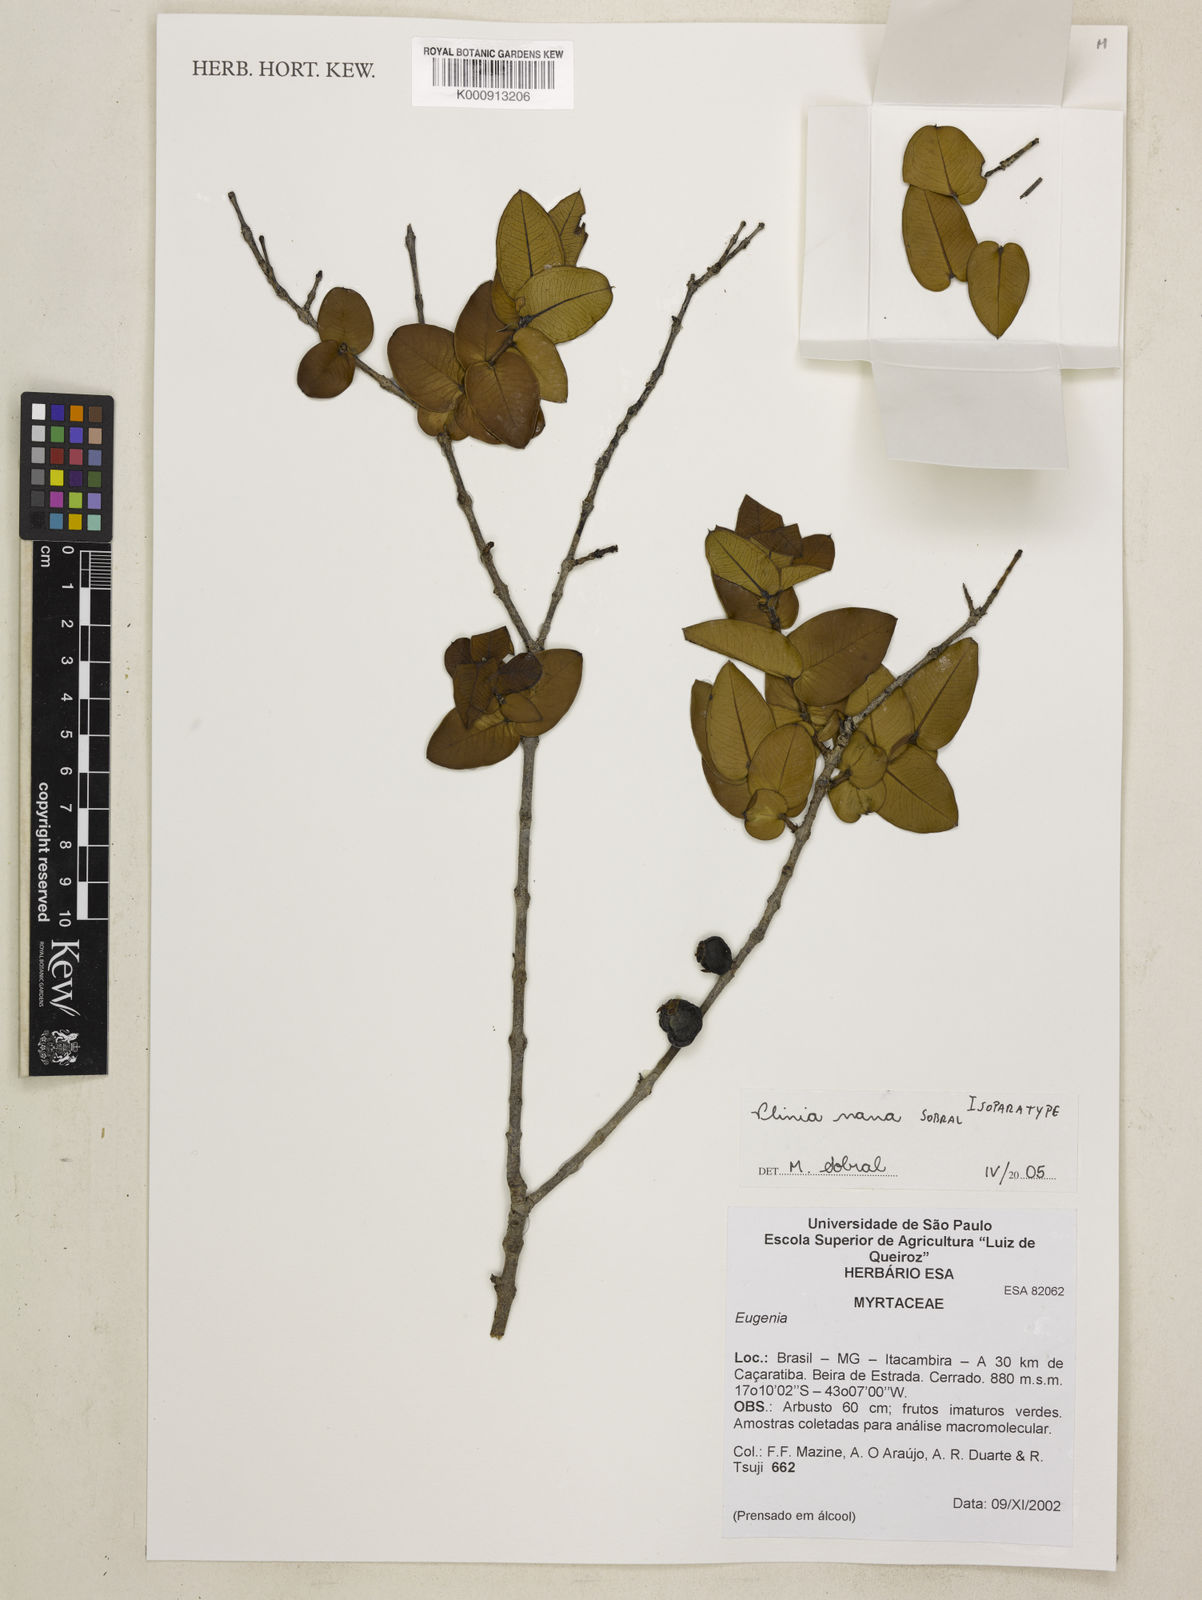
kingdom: Plantae
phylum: Tracheophyta
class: Magnoliopsida
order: Myrtales
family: Myrtaceae
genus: Plinia
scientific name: Plinia nana
